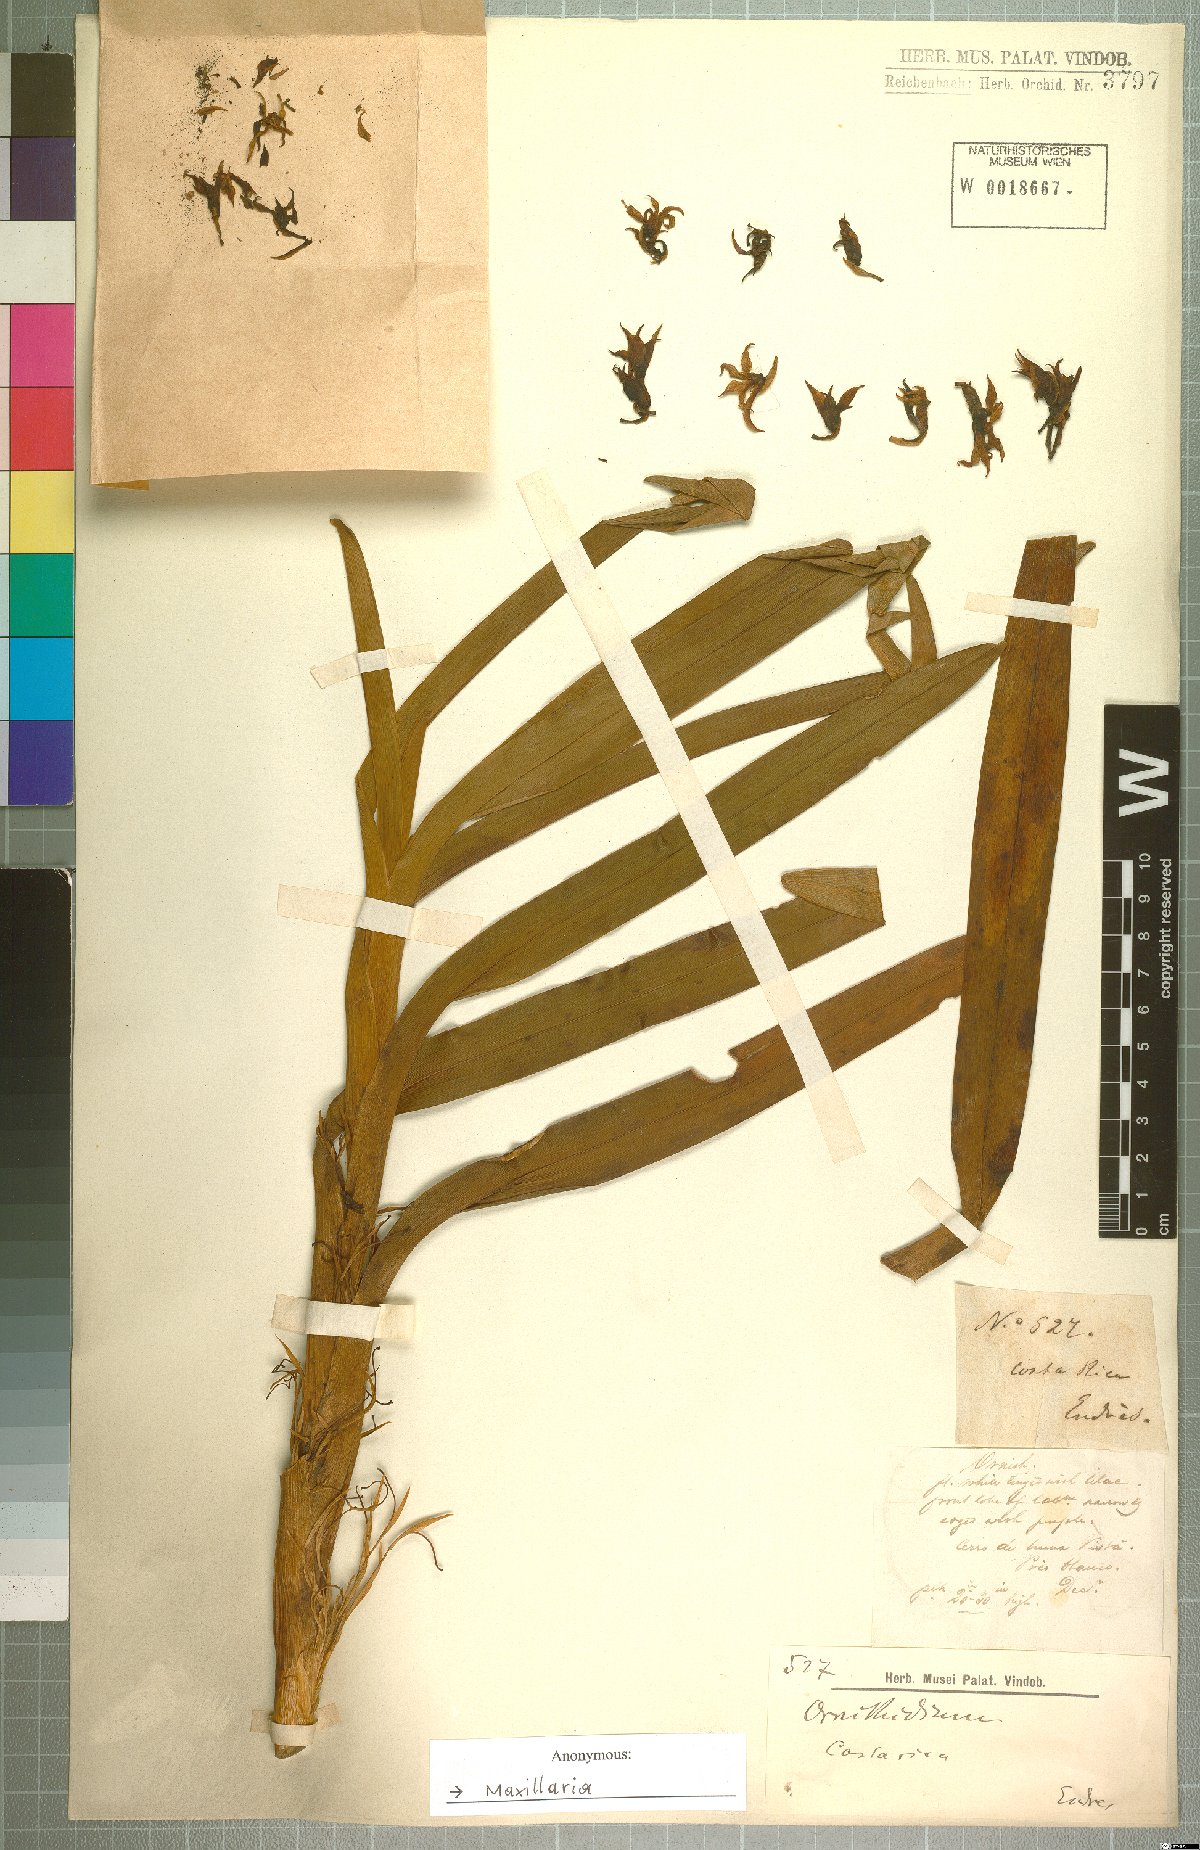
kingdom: Plantae
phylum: Tracheophyta
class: Liliopsida
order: Asparagales
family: Orchidaceae
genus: Maxillaria
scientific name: Maxillaria
